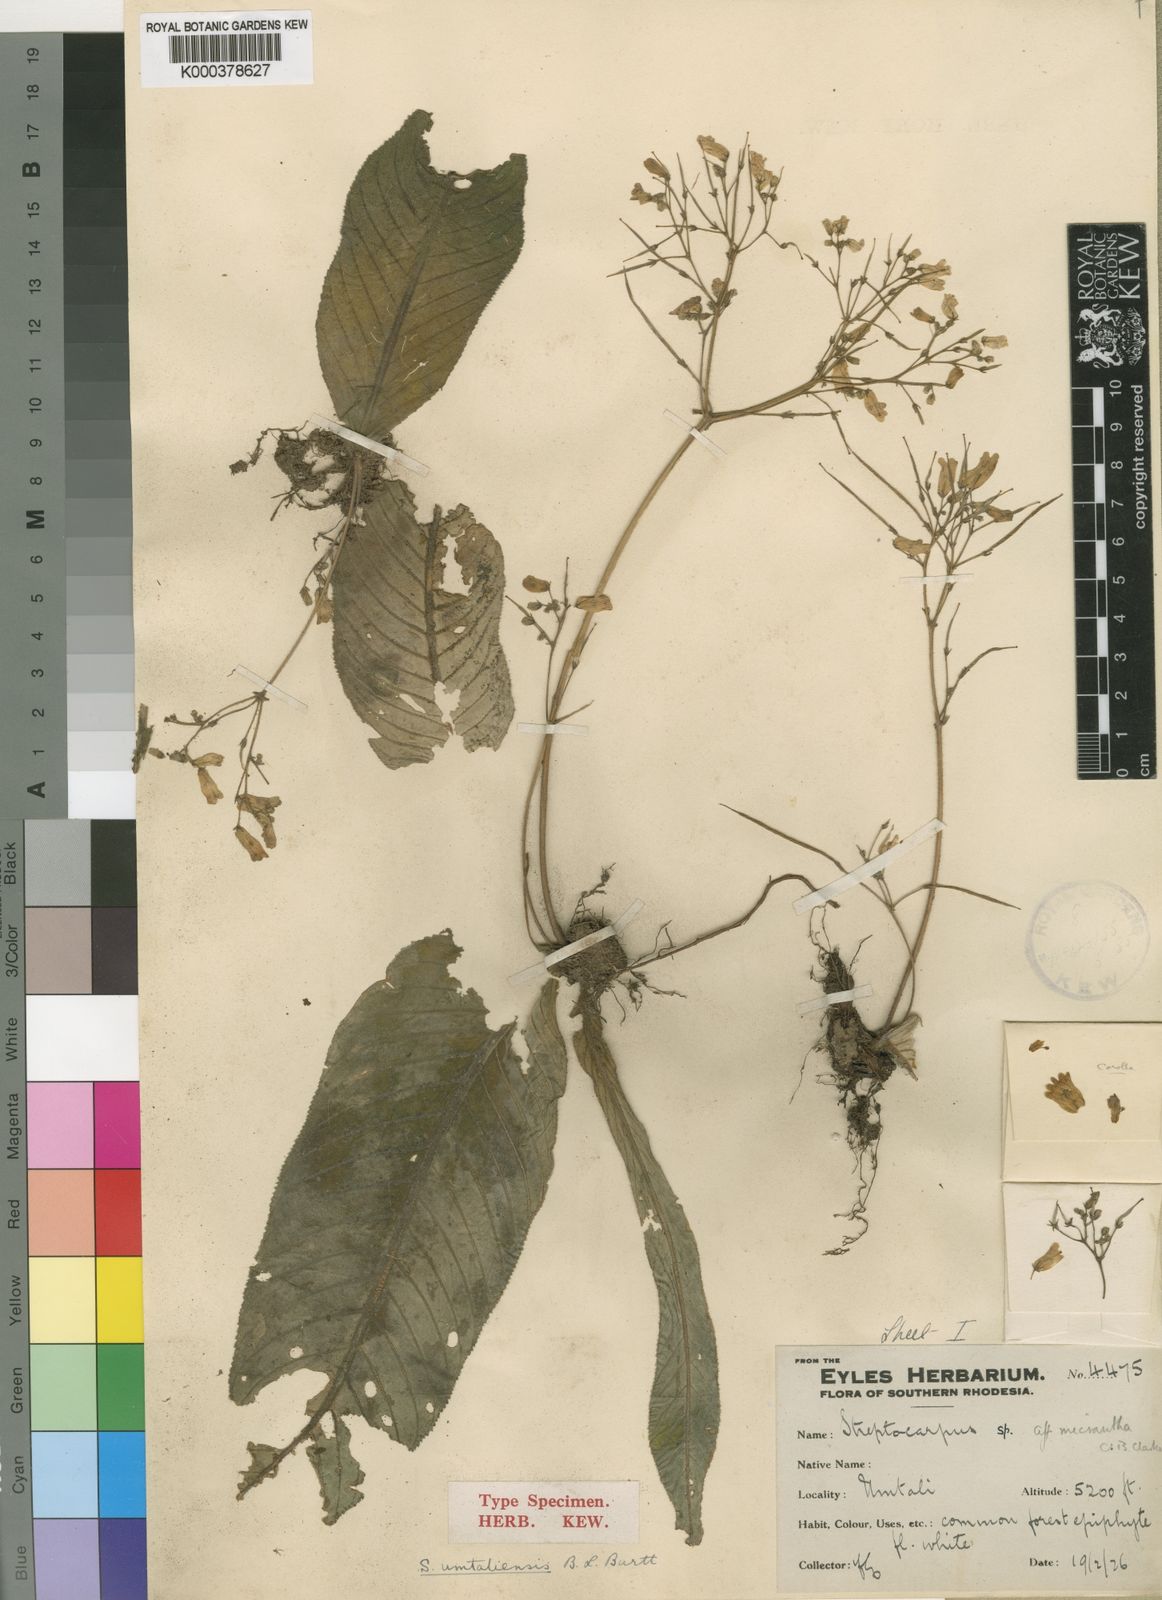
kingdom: Plantae
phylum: Tracheophyta
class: Magnoliopsida
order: Lamiales
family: Gesneriaceae
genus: Streptocarpus
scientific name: Streptocarpus umtaliensis
